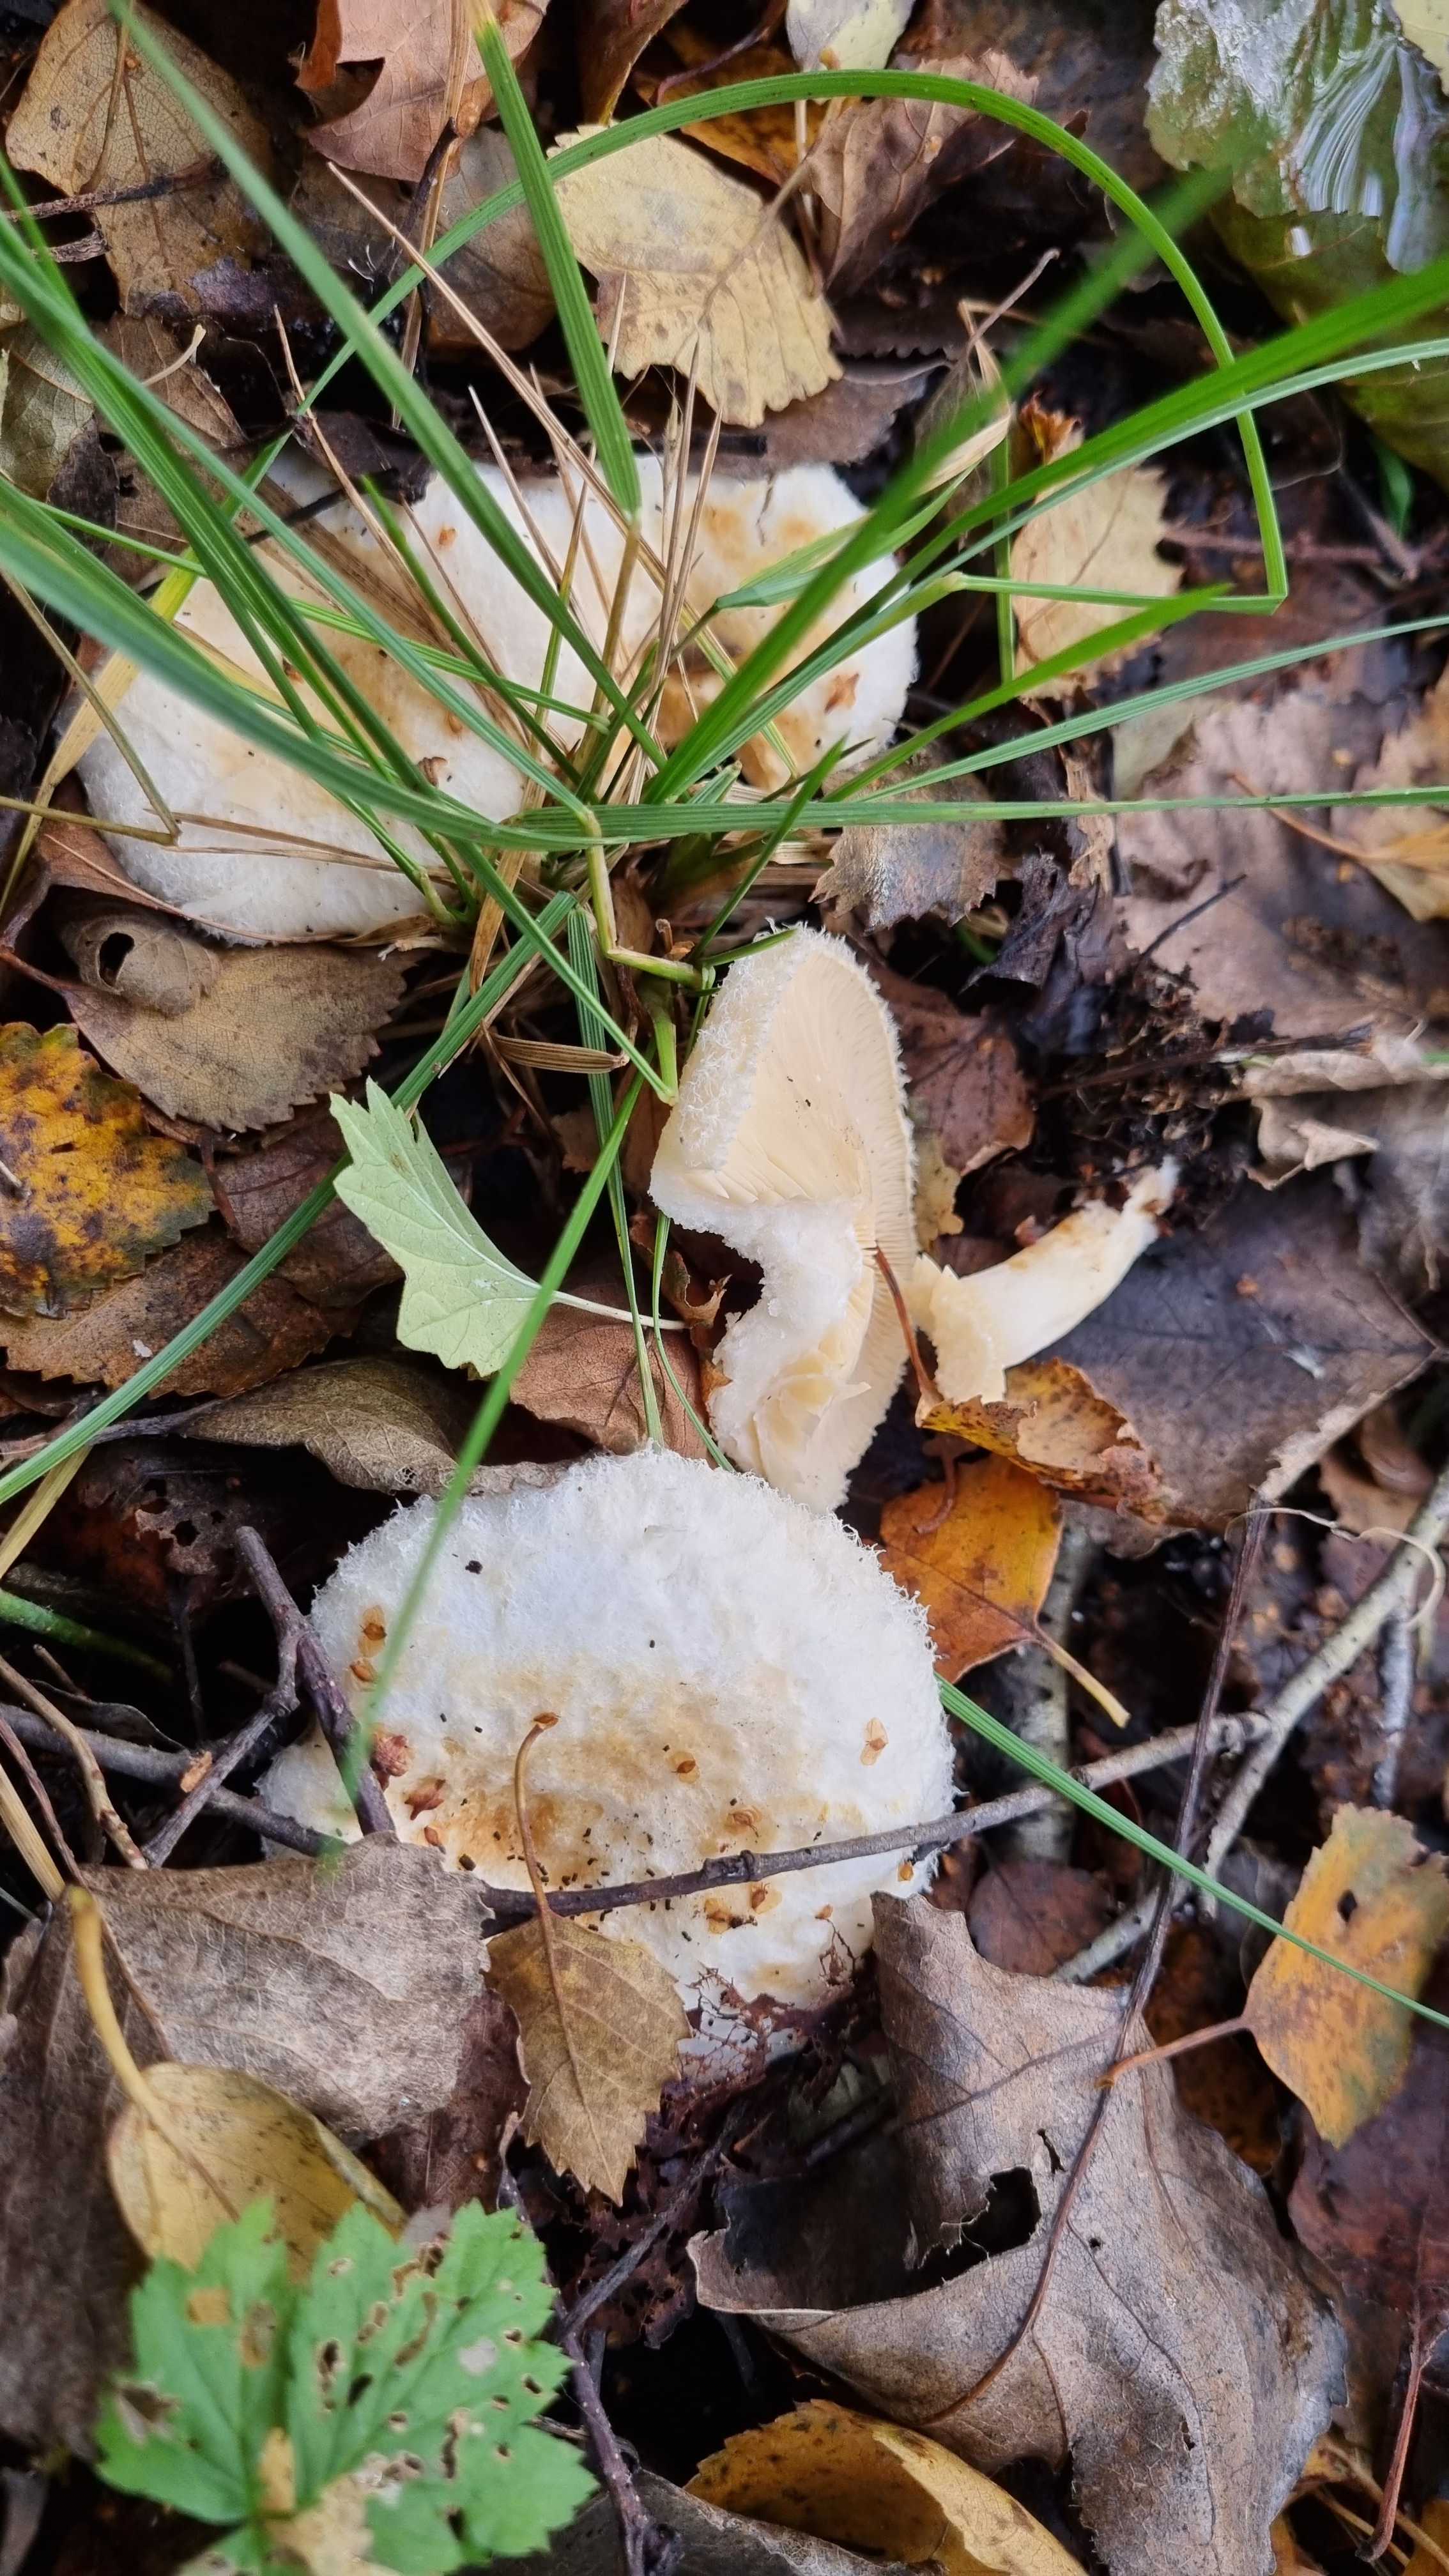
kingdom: Fungi
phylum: Basidiomycota
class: Agaricomycetes
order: Russulales
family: Russulaceae
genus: Lactarius
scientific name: Lactarius scoticus
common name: tørve-mælkehat
